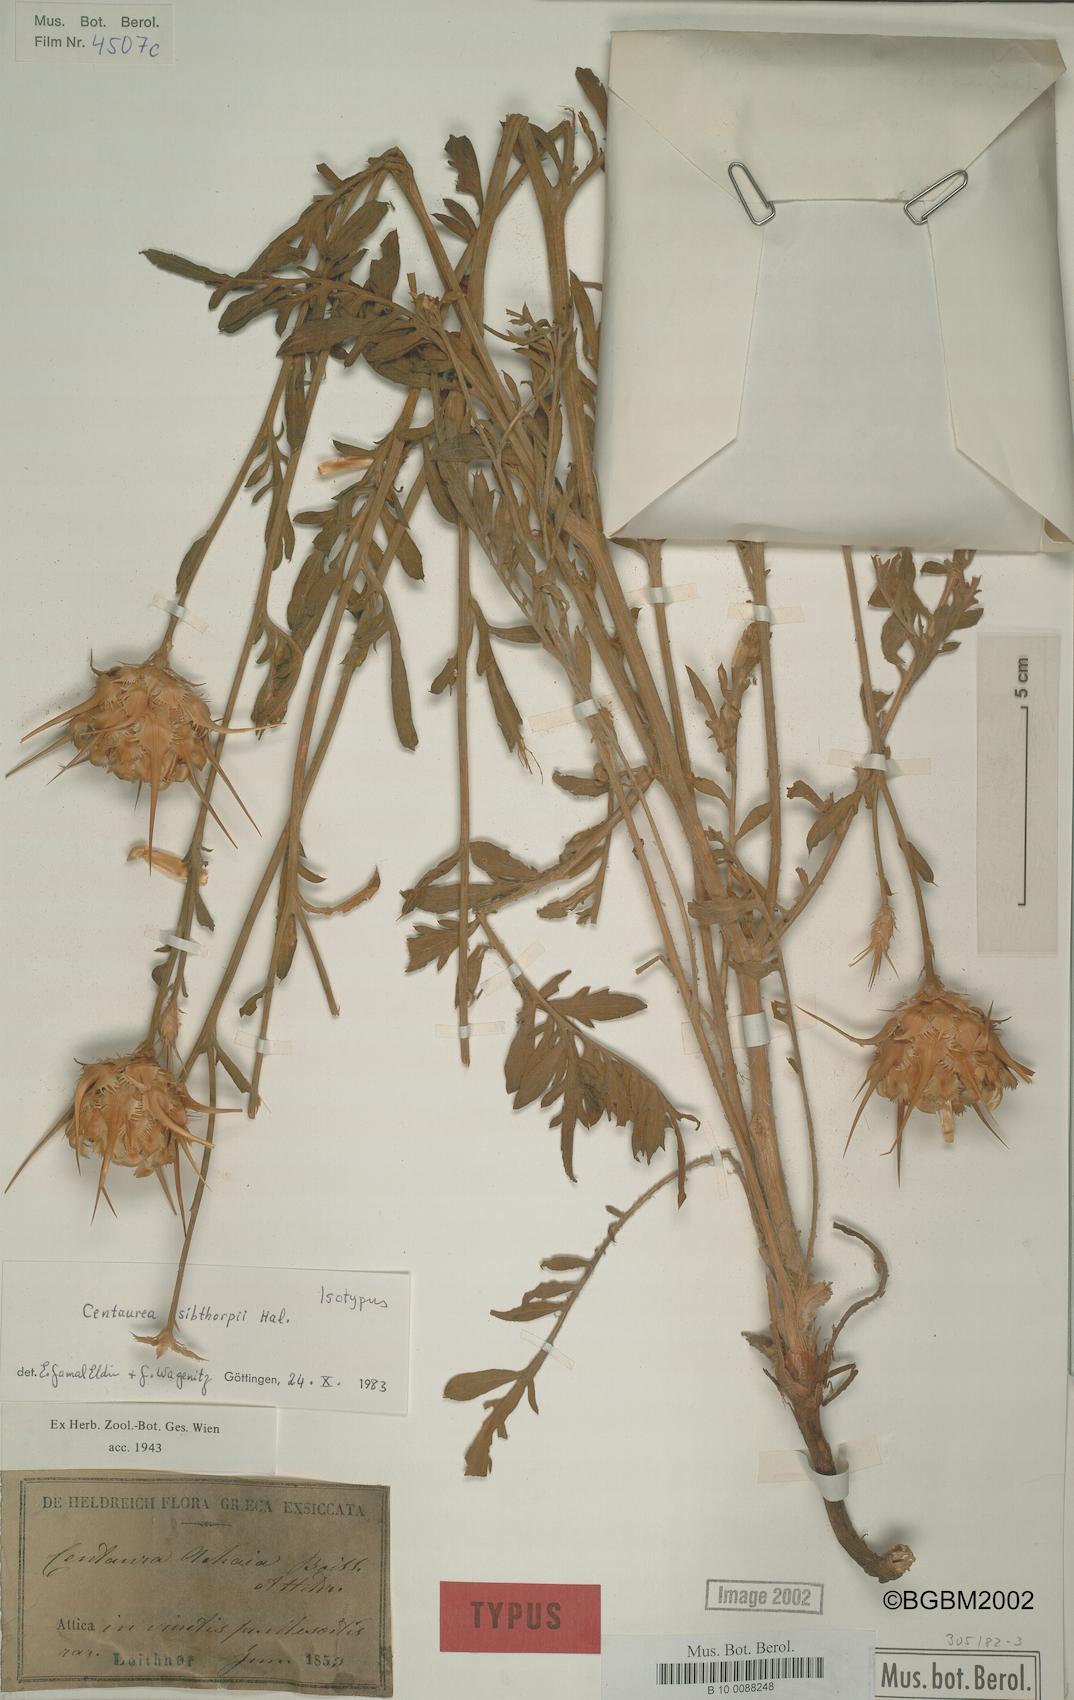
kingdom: Plantae
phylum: Tracheophyta
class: Magnoliopsida
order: Asterales
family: Asteraceae
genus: Centaurea
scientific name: Centaurea achaia
